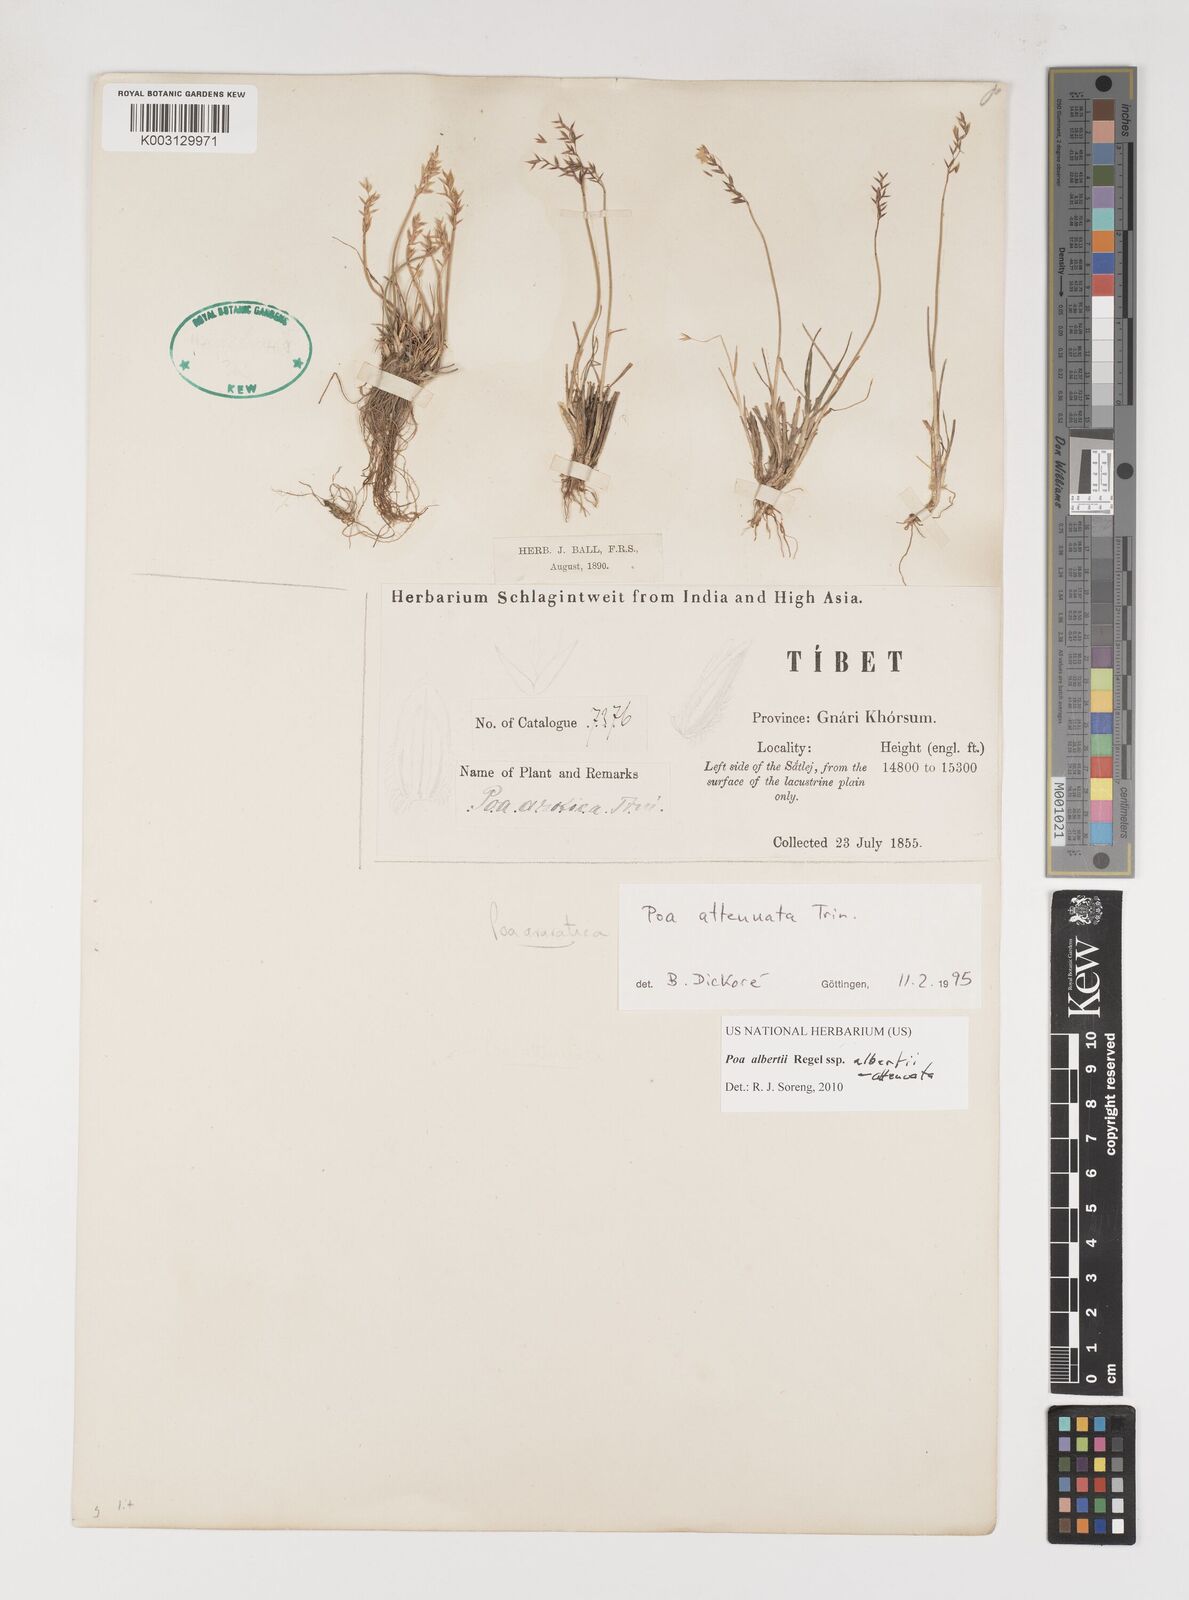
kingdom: Plantae
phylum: Tracheophyta
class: Liliopsida
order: Poales
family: Poaceae
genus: Poa
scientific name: Poa attenuata
